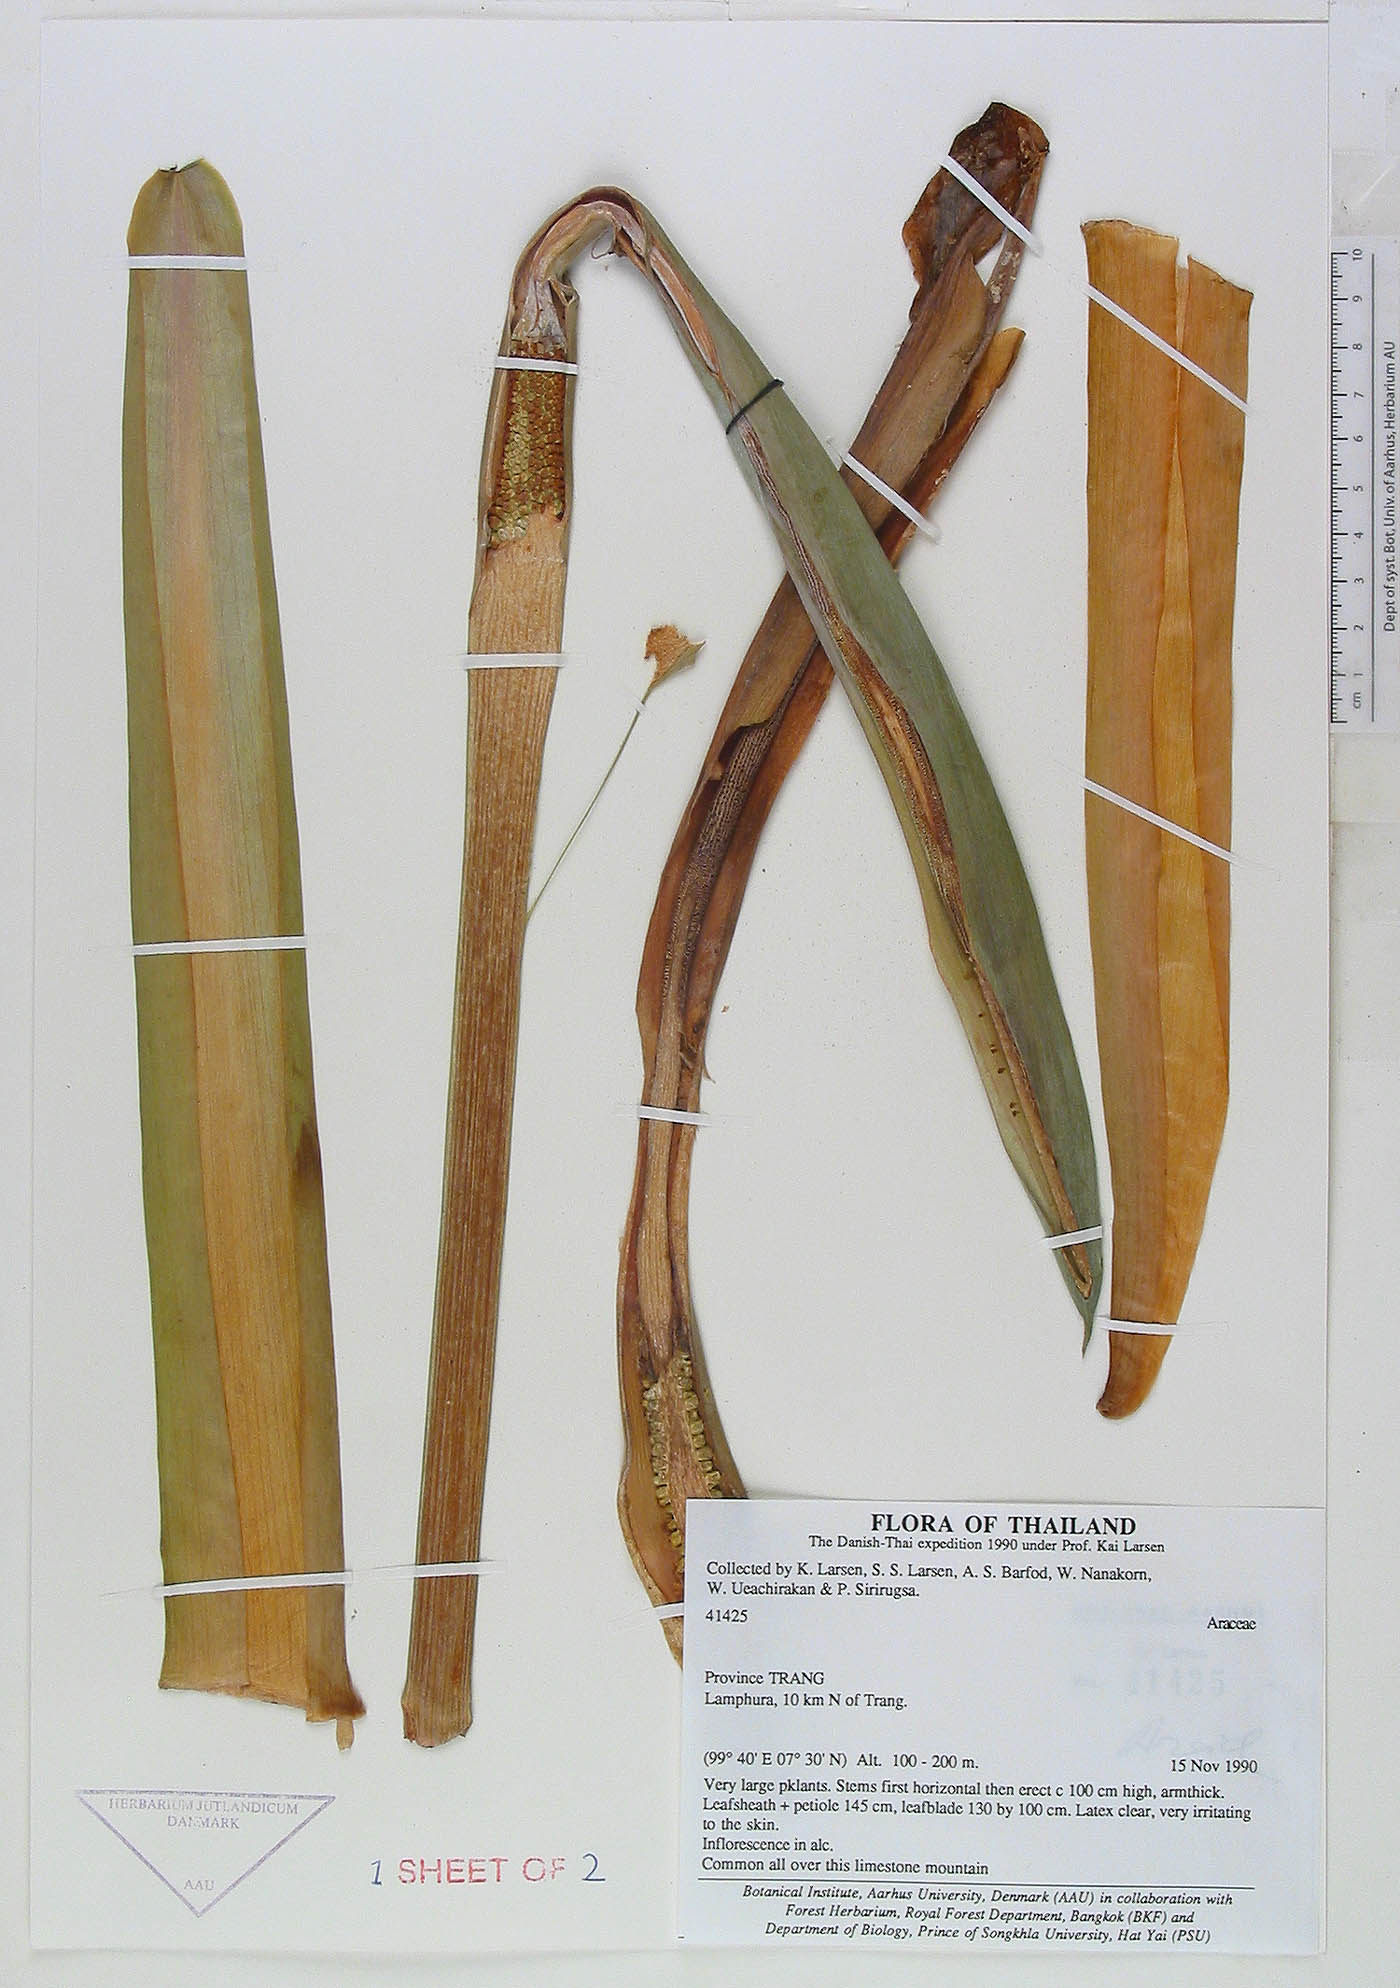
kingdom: Plantae
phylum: Tracheophyta
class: Liliopsida
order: Alismatales
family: Araceae
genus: Alocasia
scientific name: Alocasia hypoleuca
